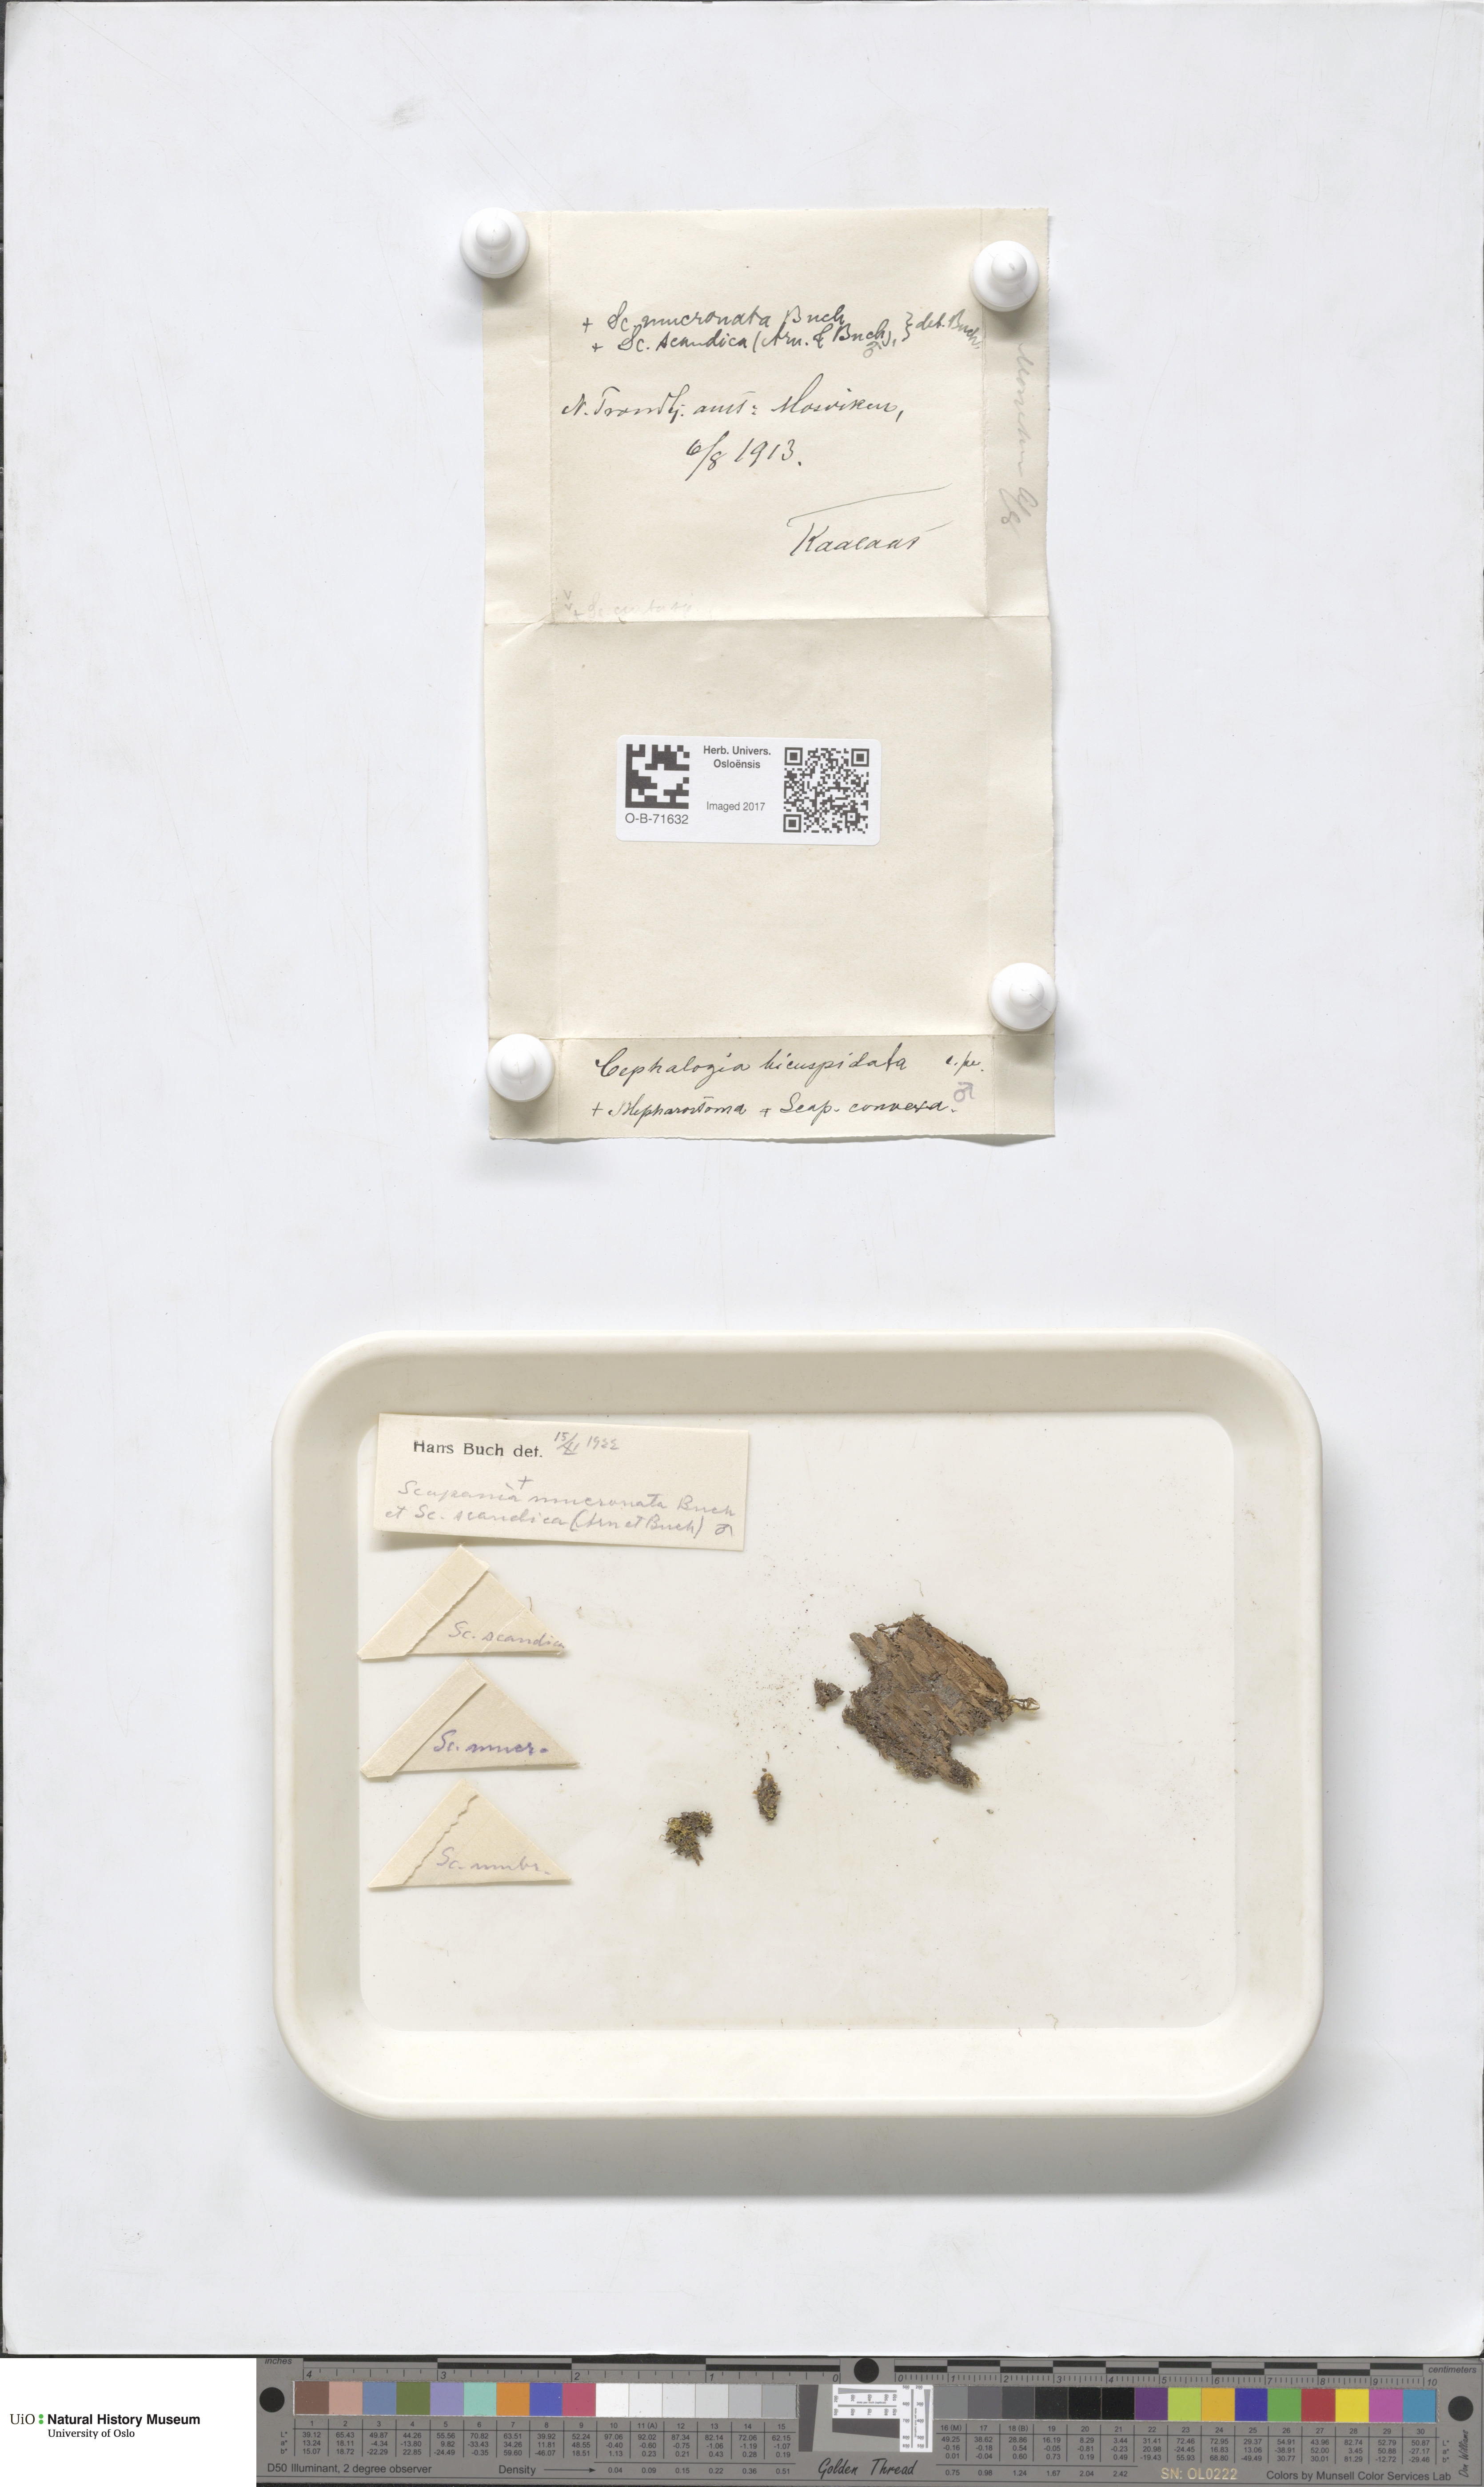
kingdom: Plantae
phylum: Marchantiophyta
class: Jungermanniopsida
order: Jungermanniales
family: Cephaloziaceae
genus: Cephalozia
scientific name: Cephalozia bicuspidata
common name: Two-horned pincerwort
